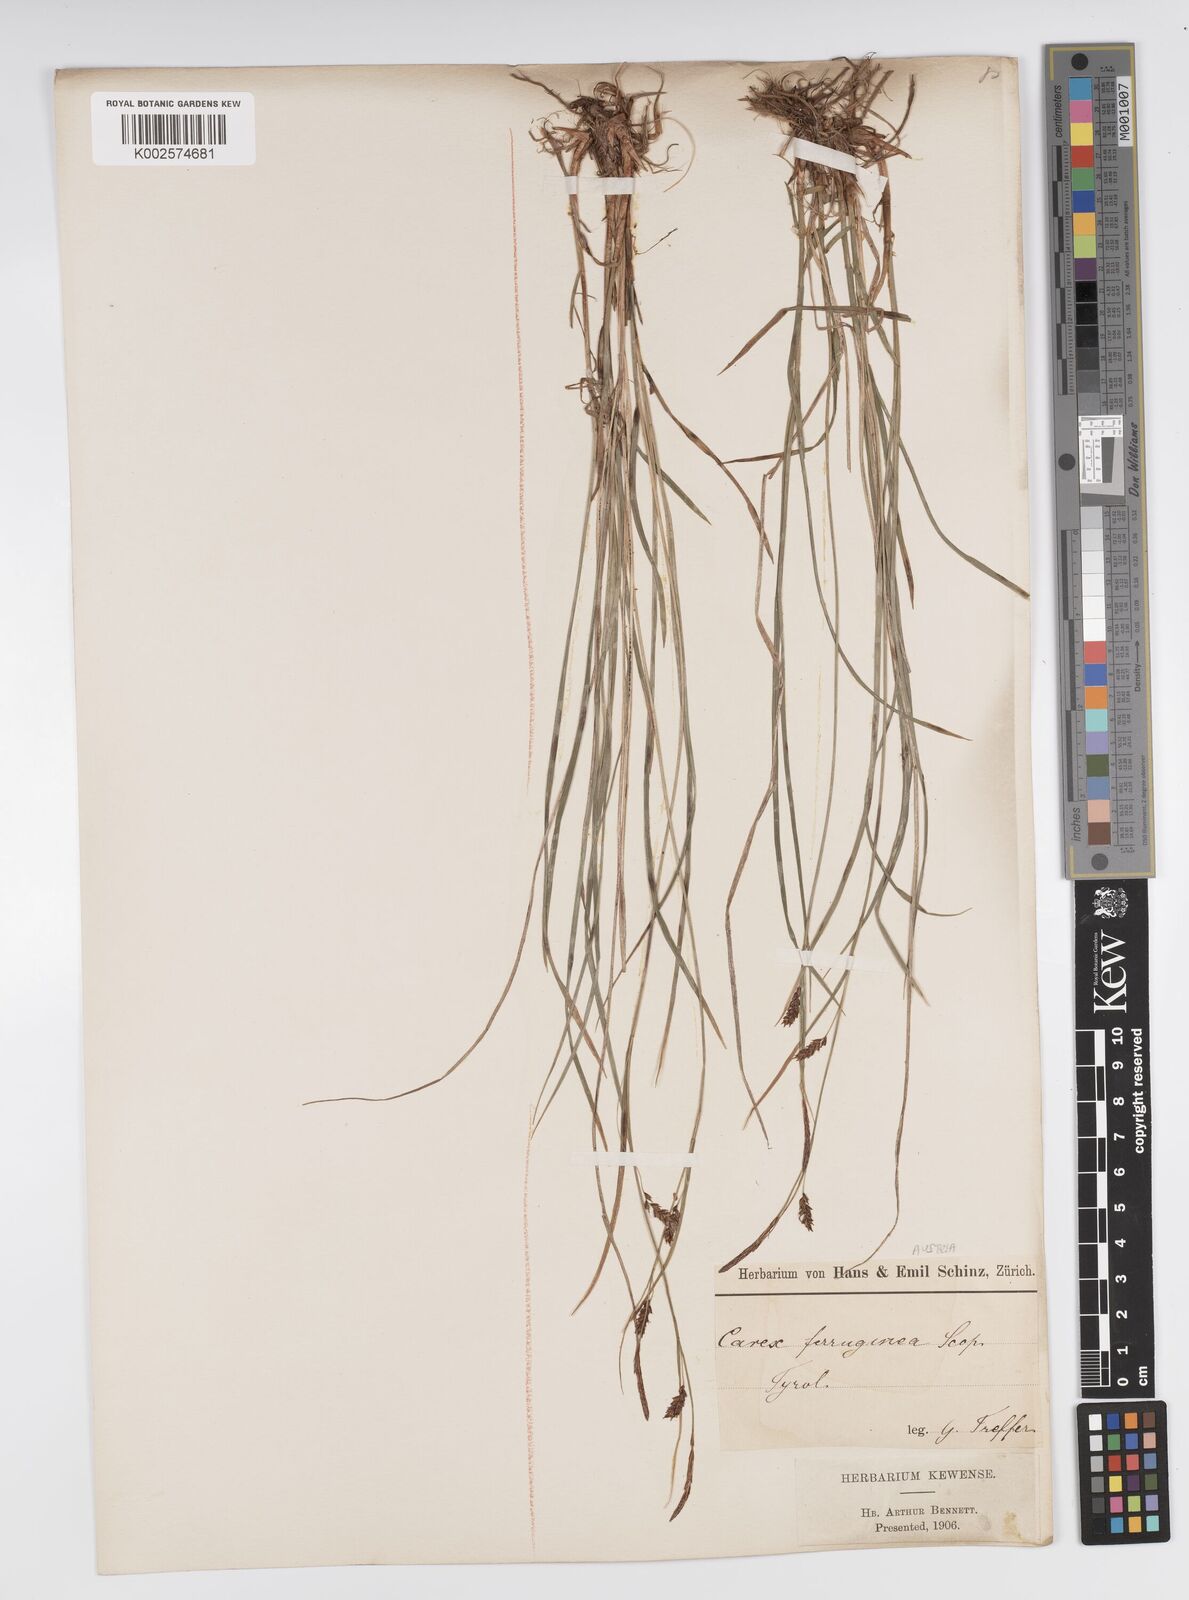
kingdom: Plantae
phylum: Tracheophyta
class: Liliopsida
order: Poales
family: Cyperaceae
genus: Carex
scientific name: Carex ferruginea
